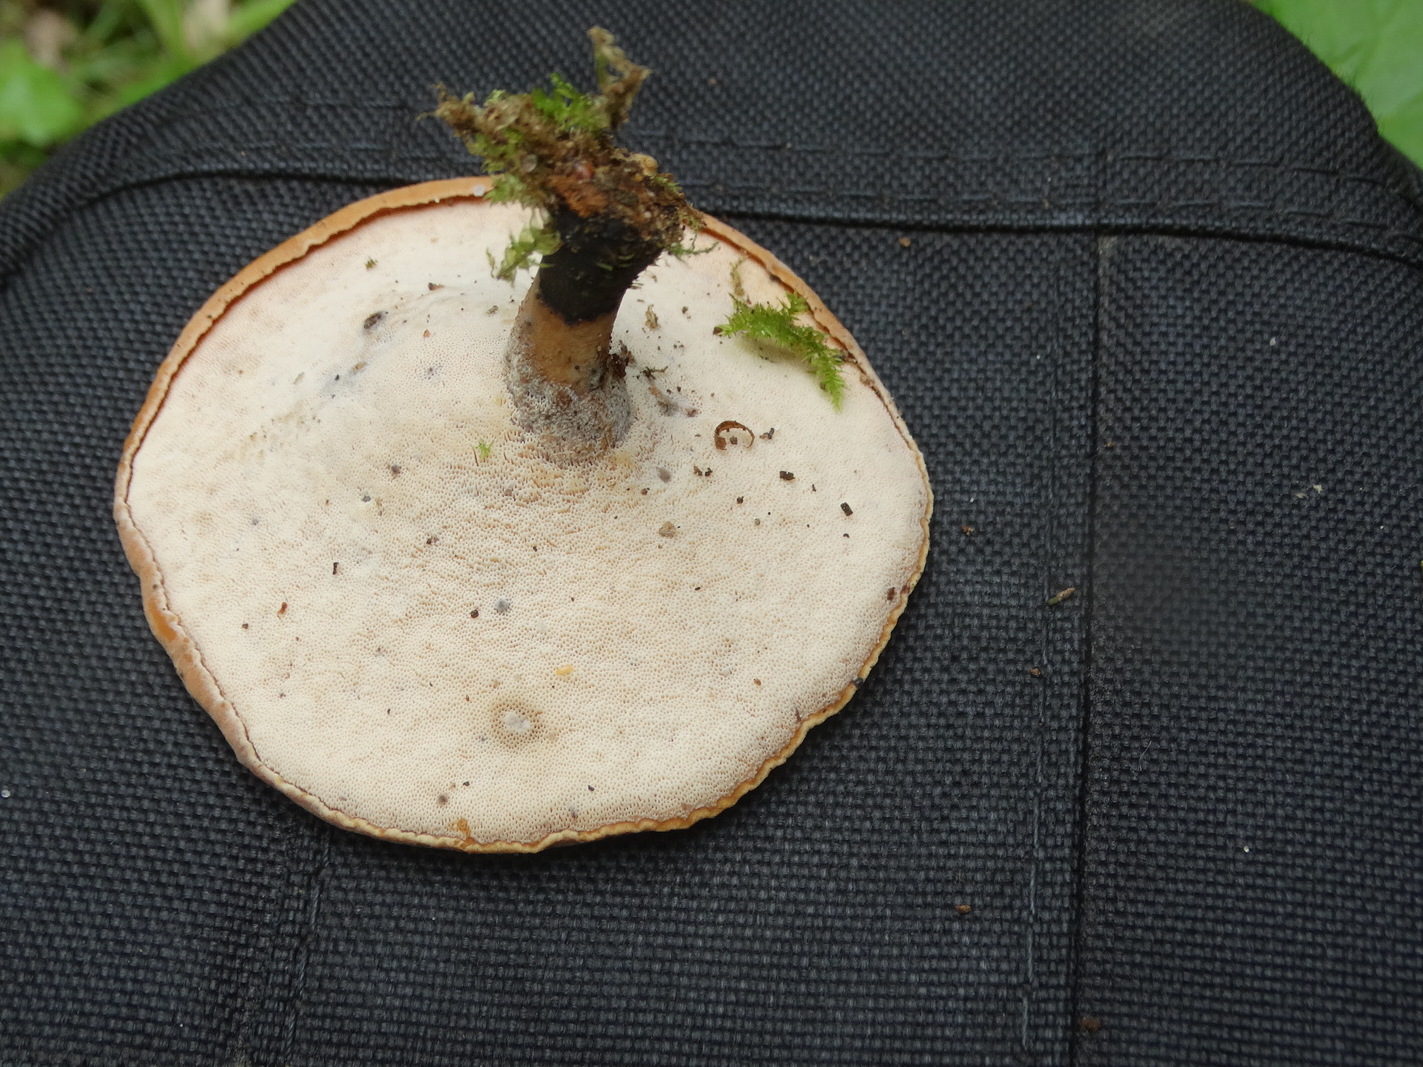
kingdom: Fungi
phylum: Basidiomycota
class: Agaricomycetes
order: Polyporales
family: Polyporaceae
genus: Cerioporus
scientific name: Cerioporus varius
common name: foranderlig stilkporesvamp
